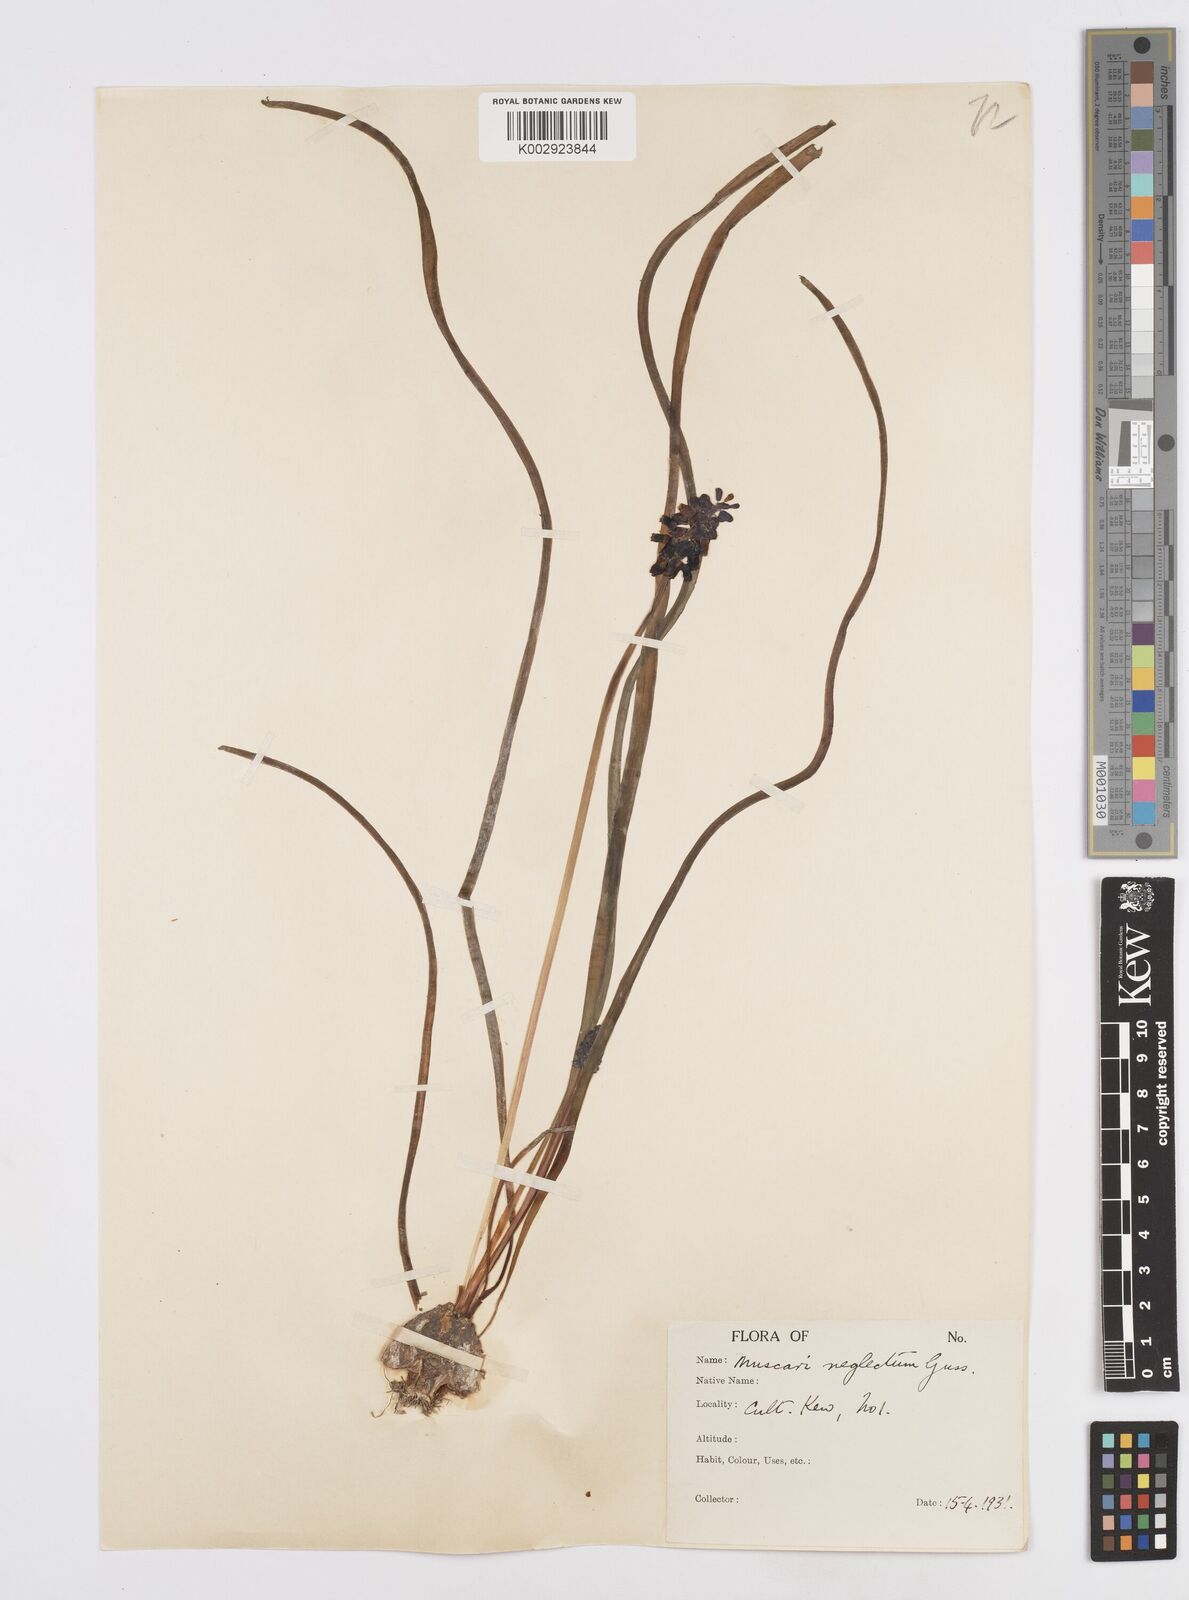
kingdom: Plantae
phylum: Tracheophyta
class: Liliopsida
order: Asparagales
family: Asparagaceae
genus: Muscari
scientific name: Muscari neglectum
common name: Grape-hyacinth
